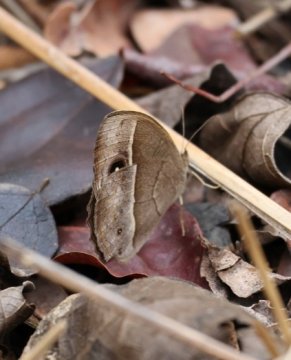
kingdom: Animalia
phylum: Arthropoda
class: Insecta
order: Lepidoptera
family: Nymphalidae
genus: Mycalesis
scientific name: Mycalesis anynana
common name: Squinting Bush Brown
